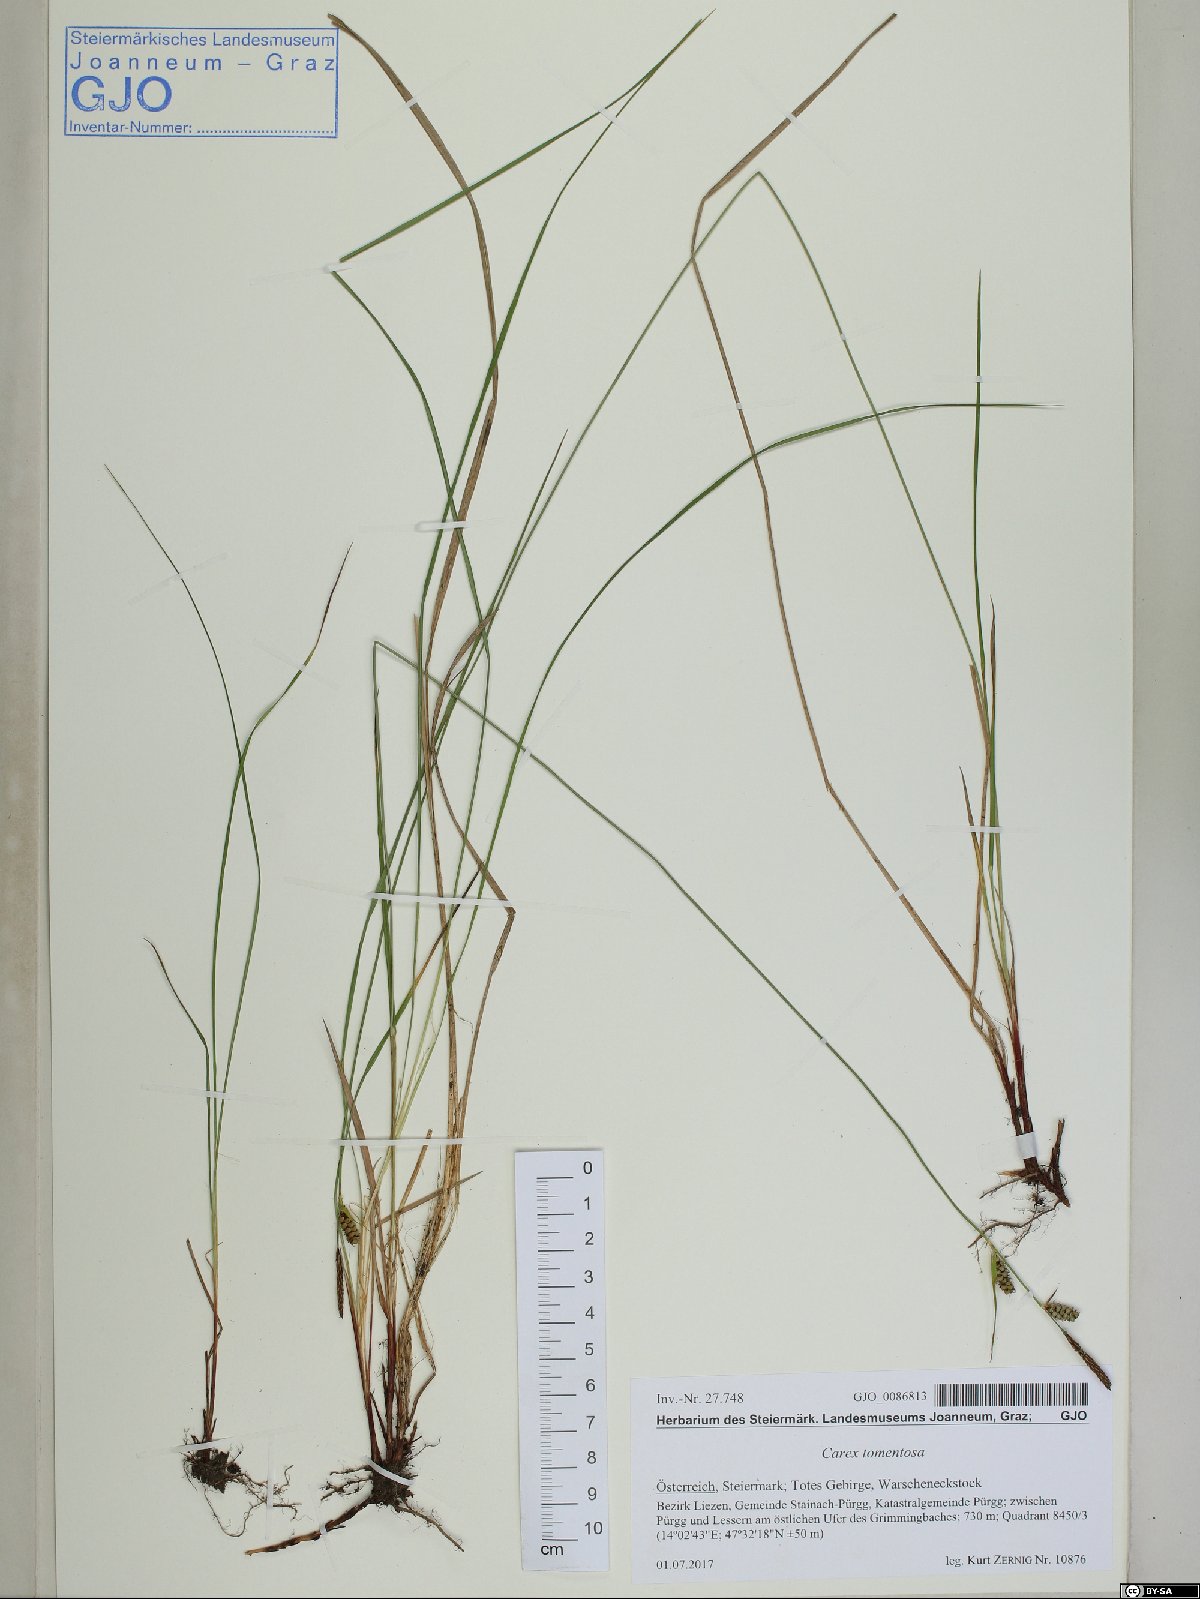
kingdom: Plantae
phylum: Tracheophyta
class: Liliopsida
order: Poales
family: Cyperaceae
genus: Carex
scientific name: Carex tomentosa
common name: Downy-fruited sedge
